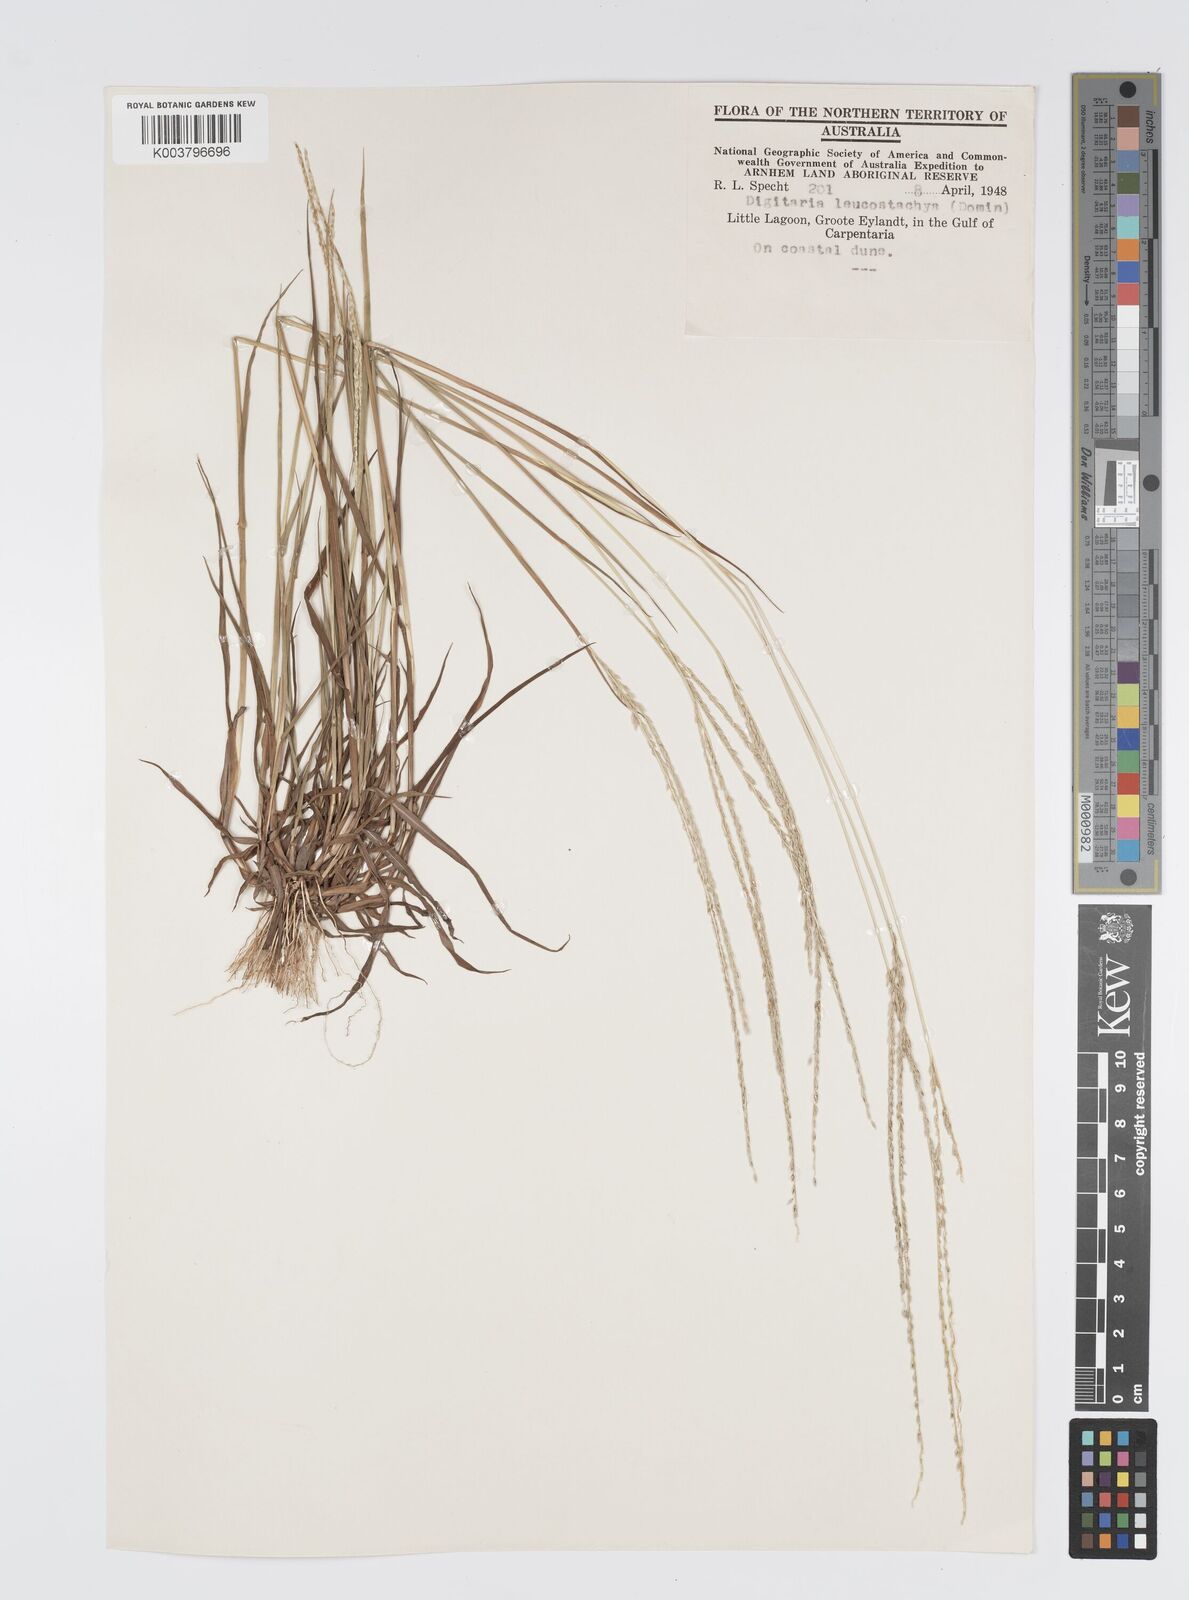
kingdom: Plantae
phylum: Tracheophyta
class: Liliopsida
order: Poales
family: Poaceae
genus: Digitaria
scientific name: Digitaria leucostachya
